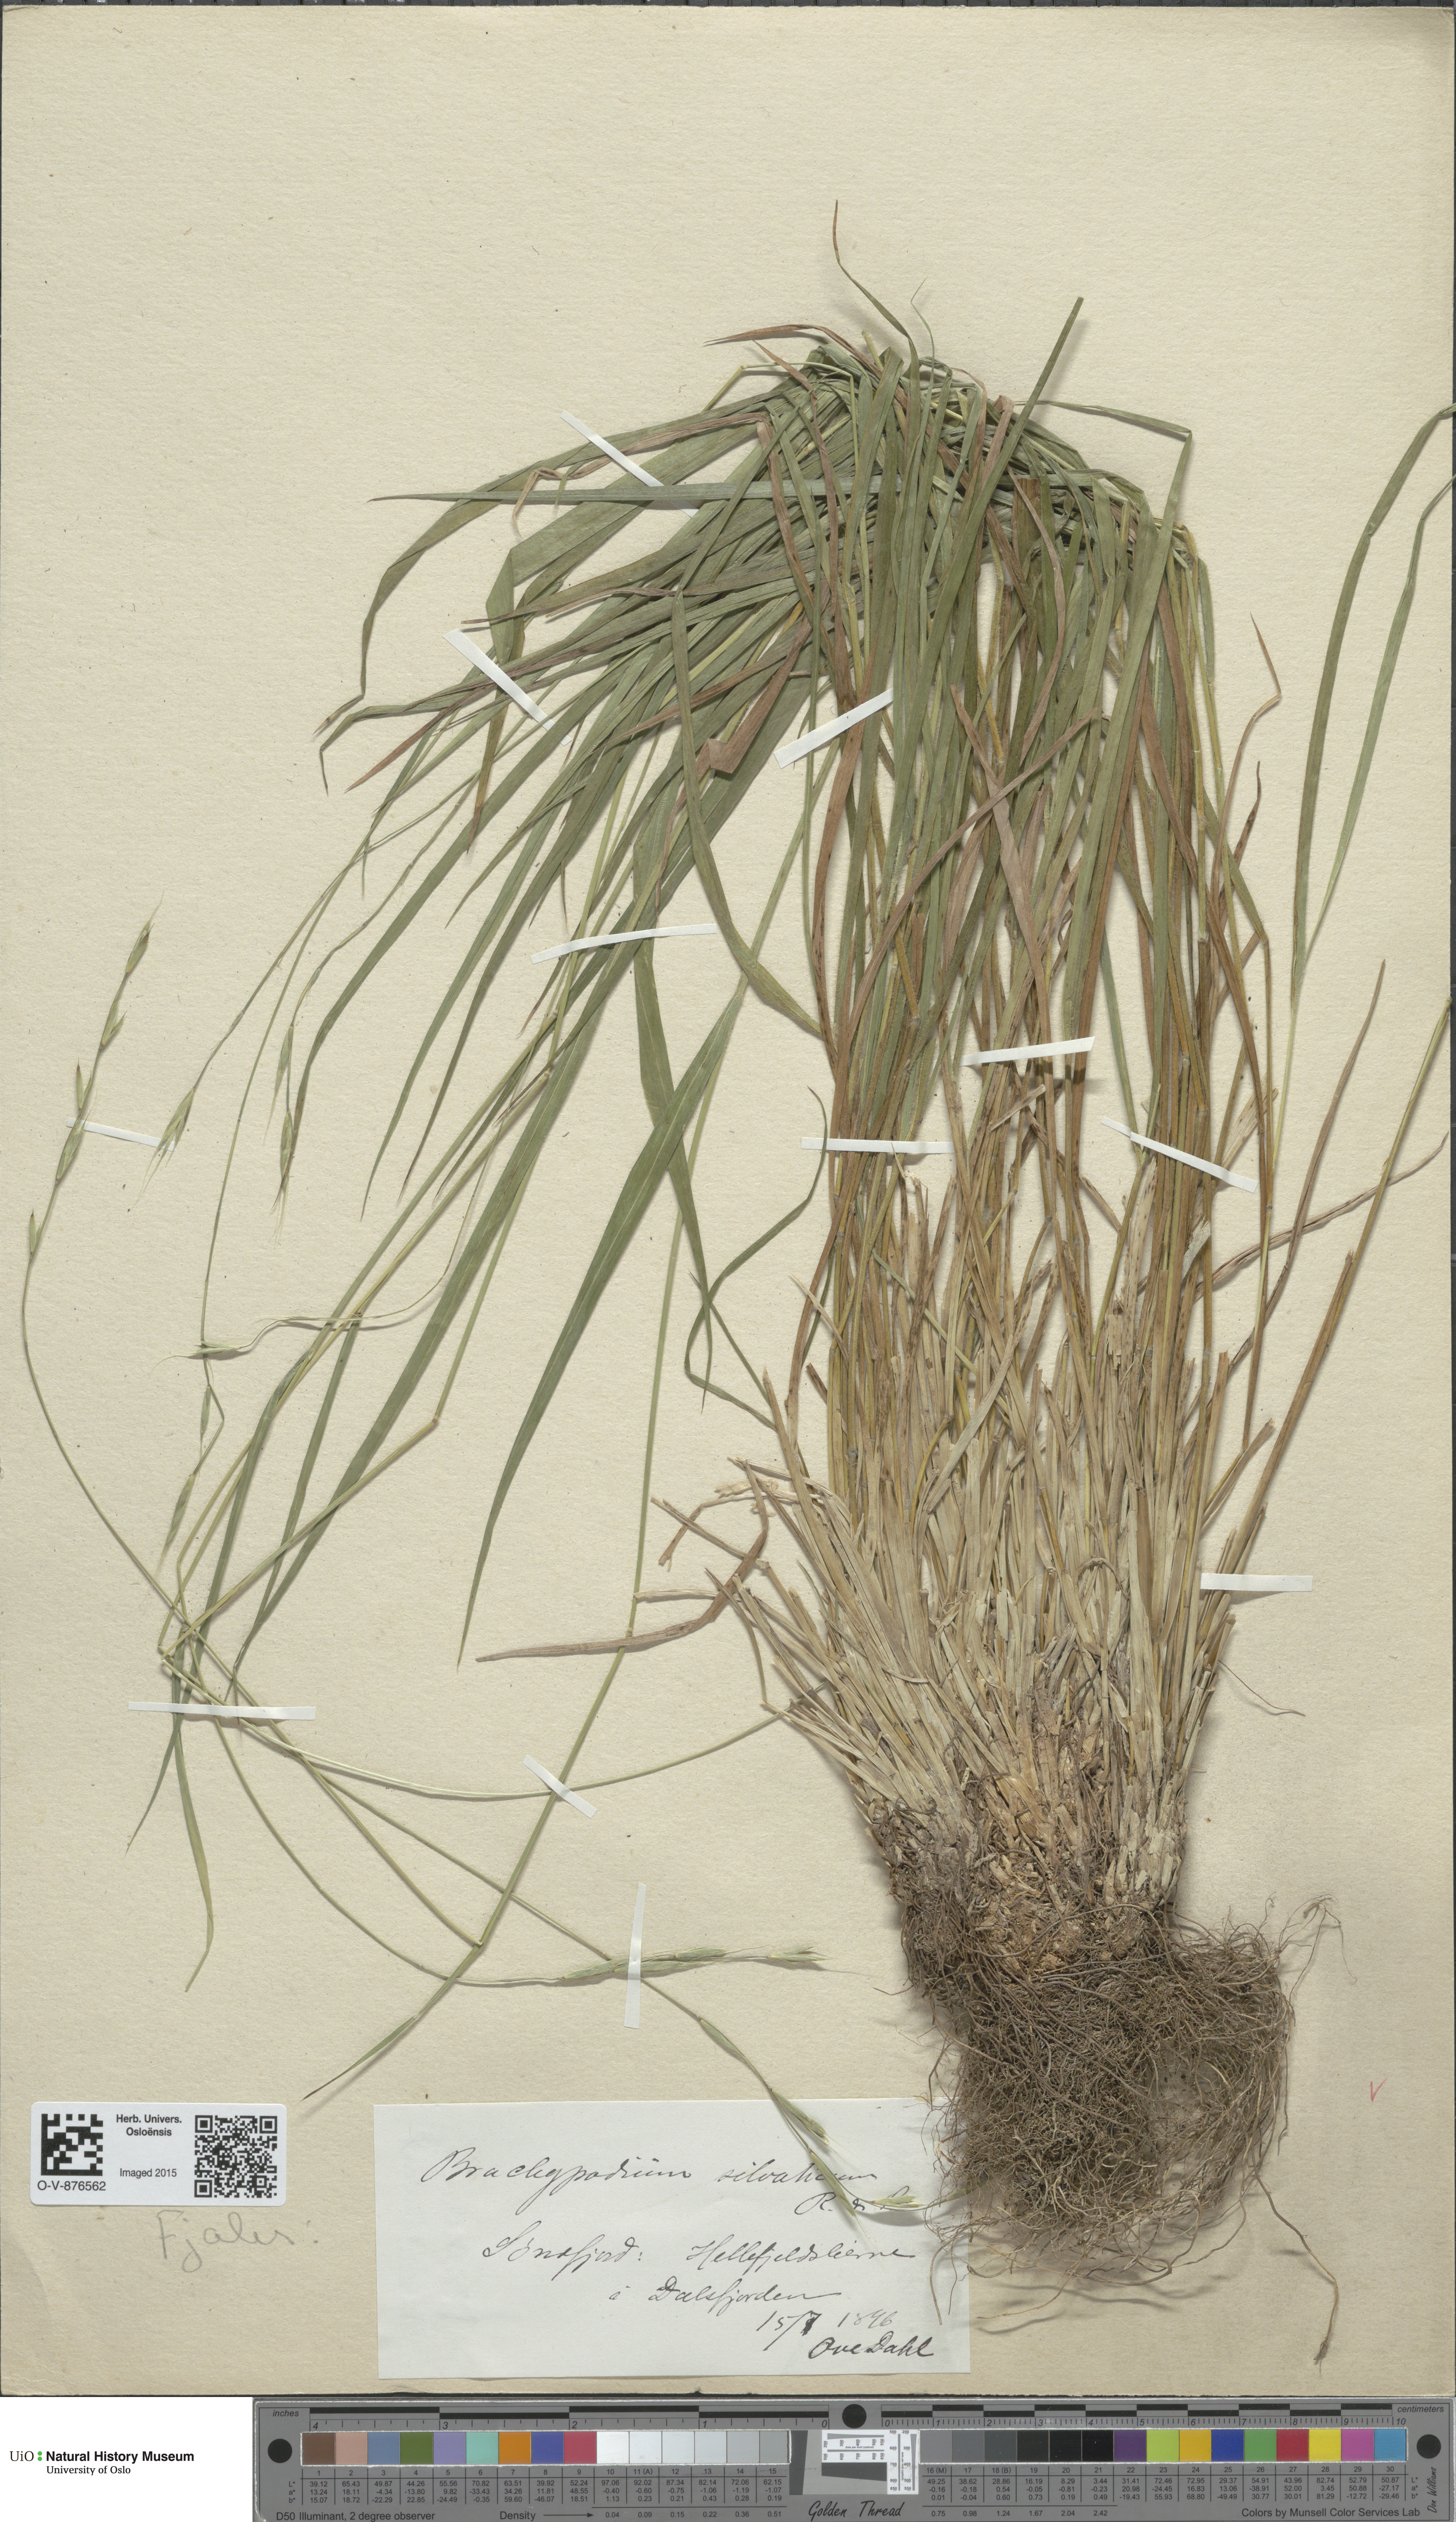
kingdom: Plantae
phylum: Tracheophyta
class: Liliopsida
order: Poales
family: Poaceae
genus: Brachypodium
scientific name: Brachypodium sylvaticum
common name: False-brome
